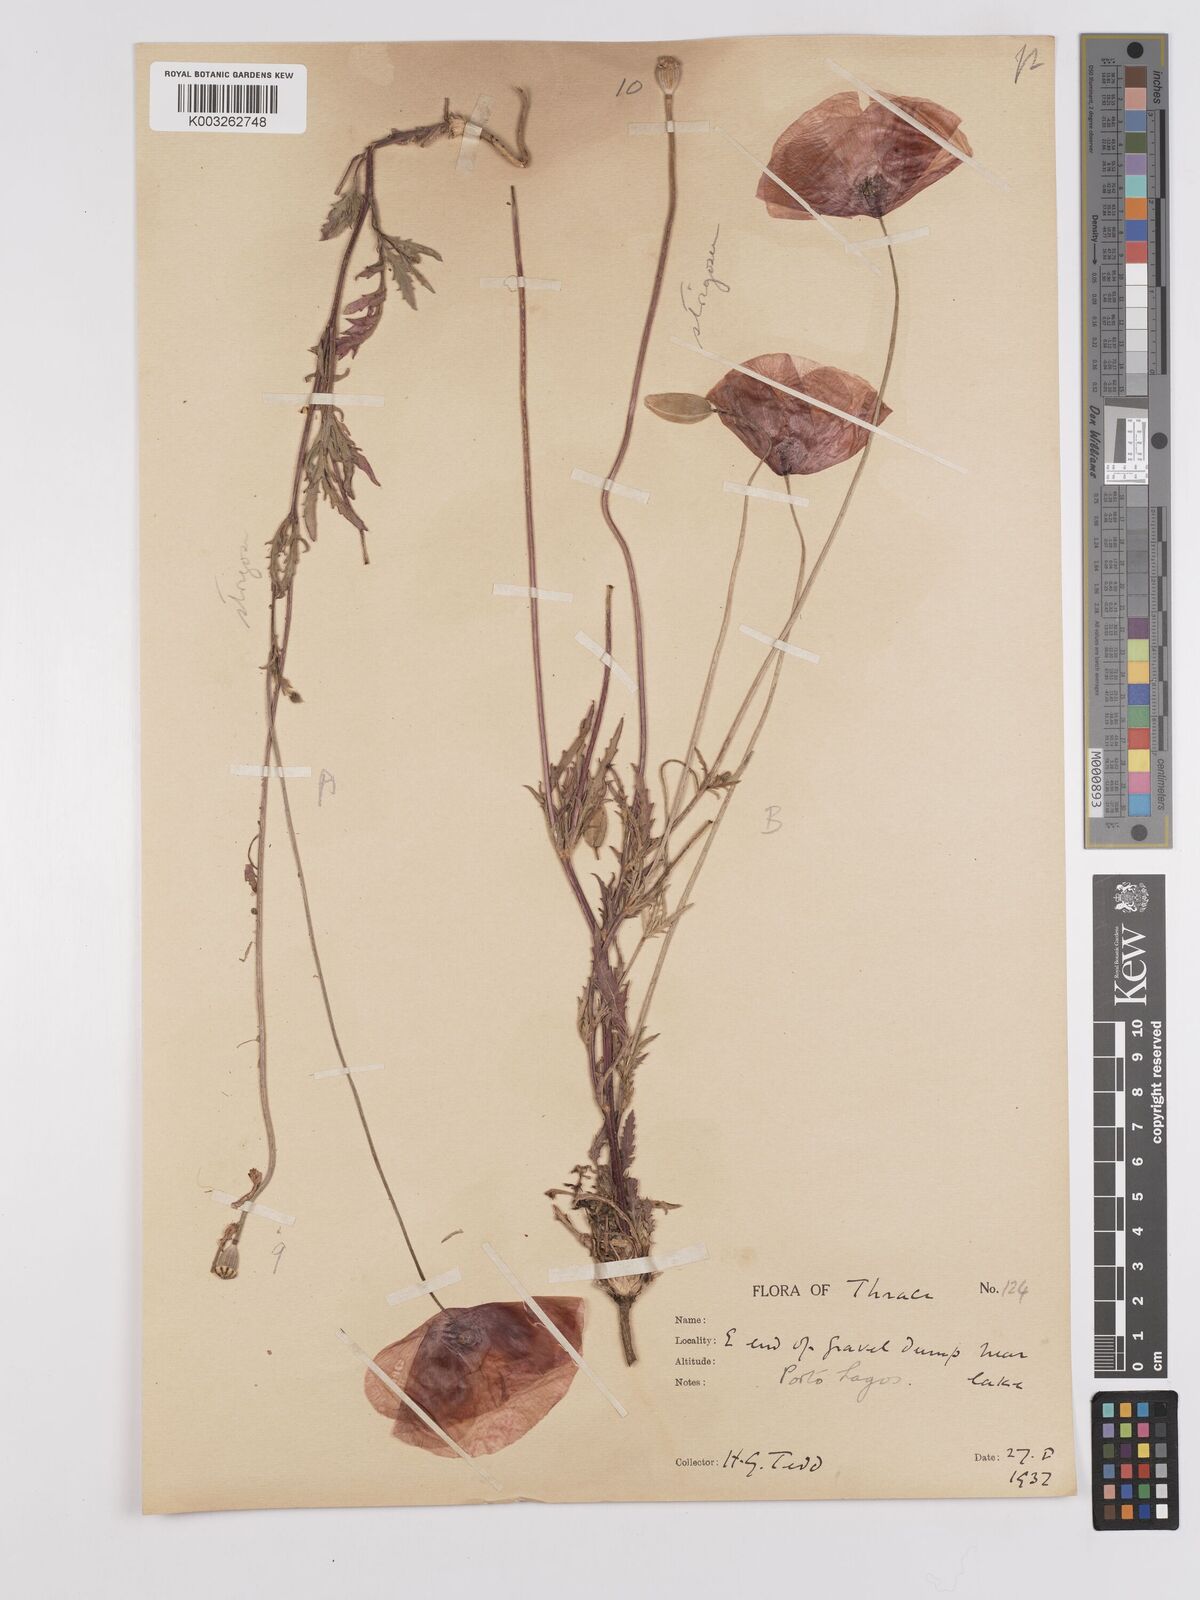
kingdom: Plantae
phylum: Tracheophyta
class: Magnoliopsida
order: Ranunculales
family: Papaveraceae
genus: Papaver
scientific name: Papaver
